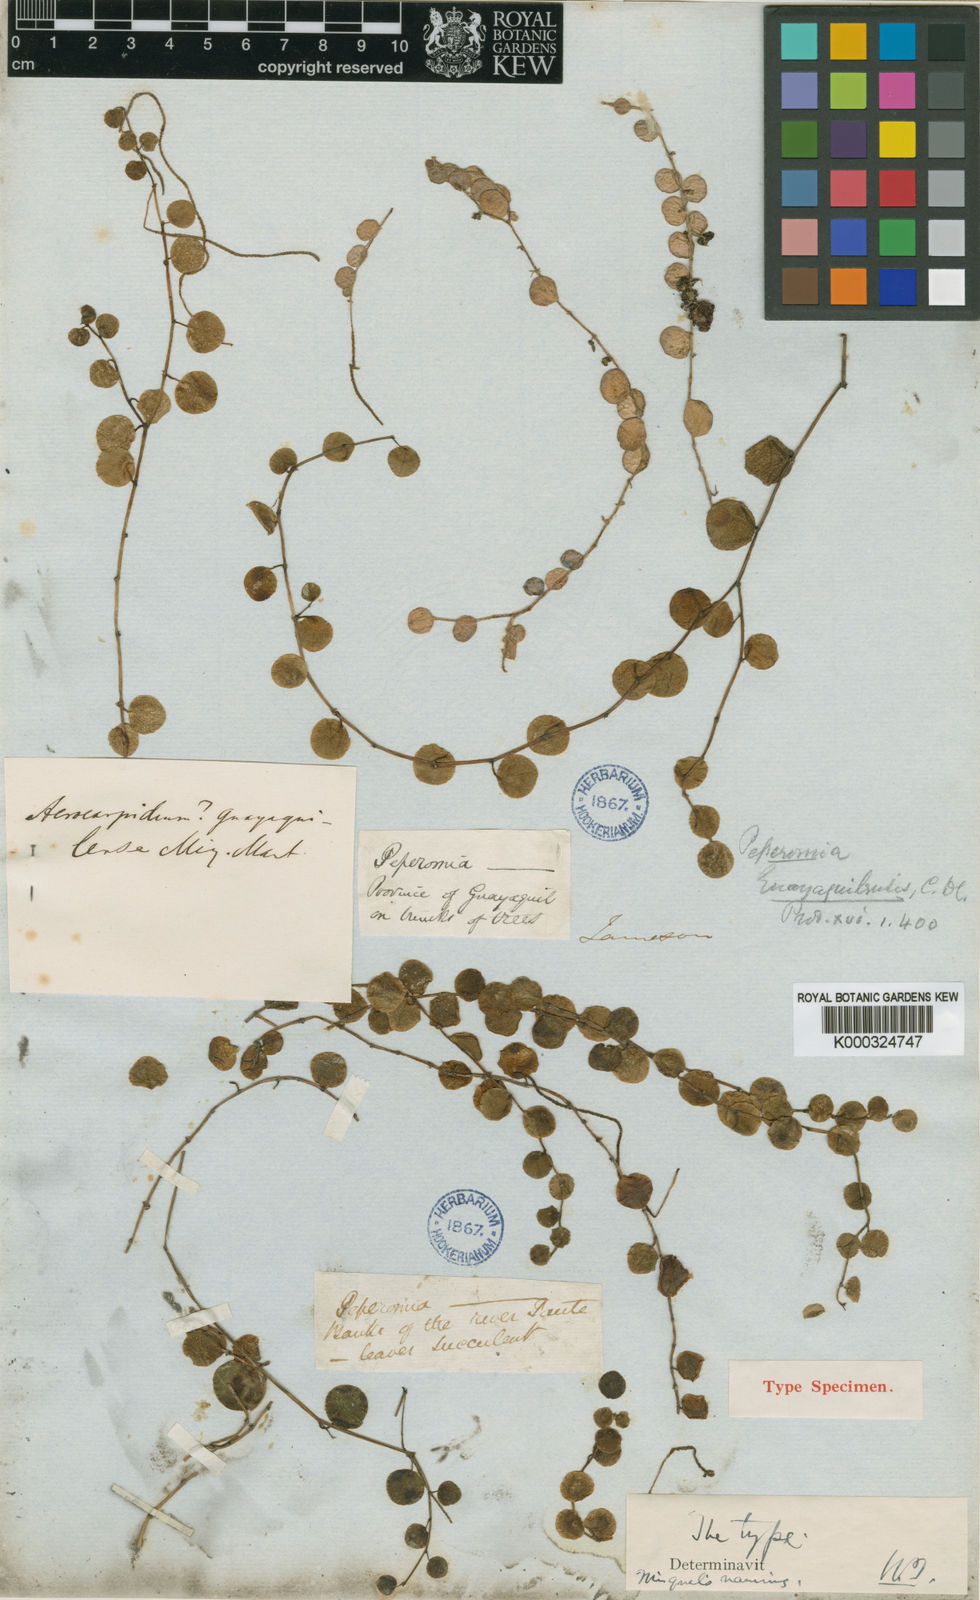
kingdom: Plantae
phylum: Tracheophyta
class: Magnoliopsida
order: Piperales
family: Piperaceae
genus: Peperomia
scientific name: Peperomia
